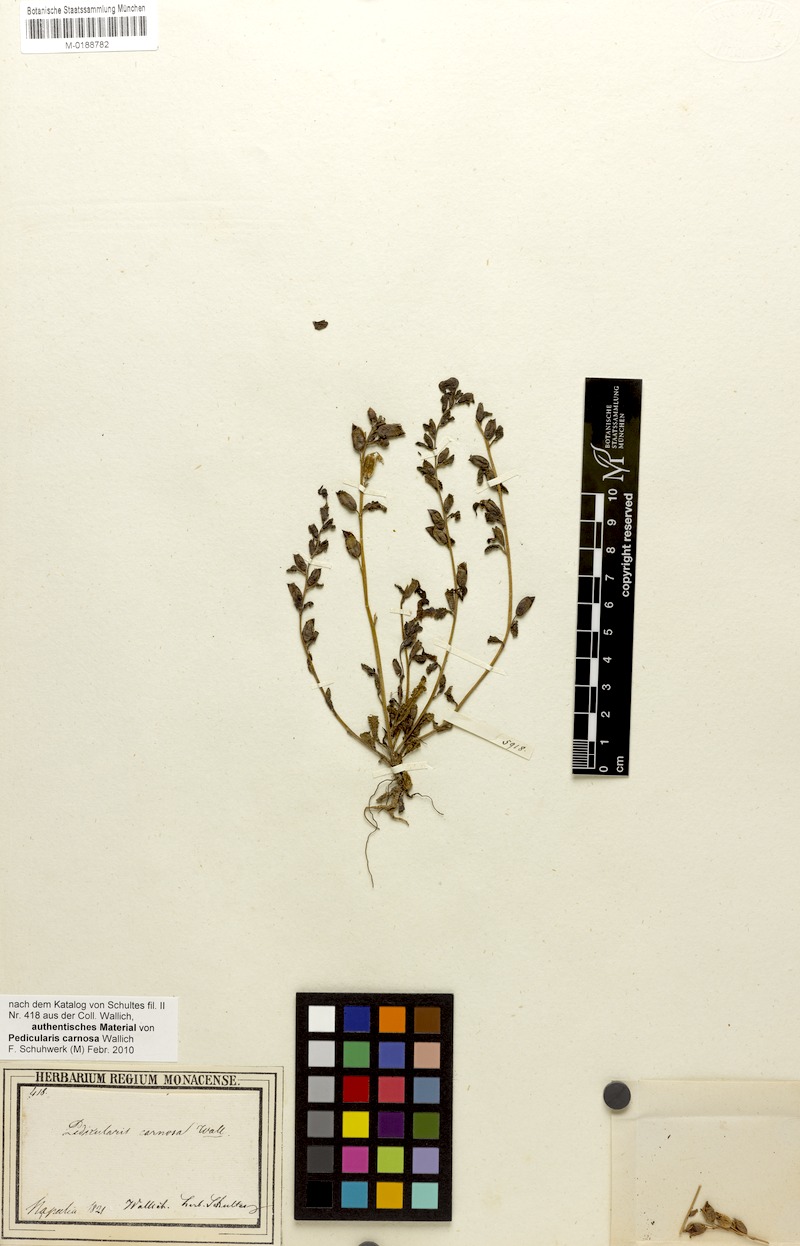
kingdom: Plantae
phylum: Tracheophyta
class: Magnoliopsida
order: Lamiales
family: Orobanchaceae
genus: Pedicularis
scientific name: Pedicularis bifida
